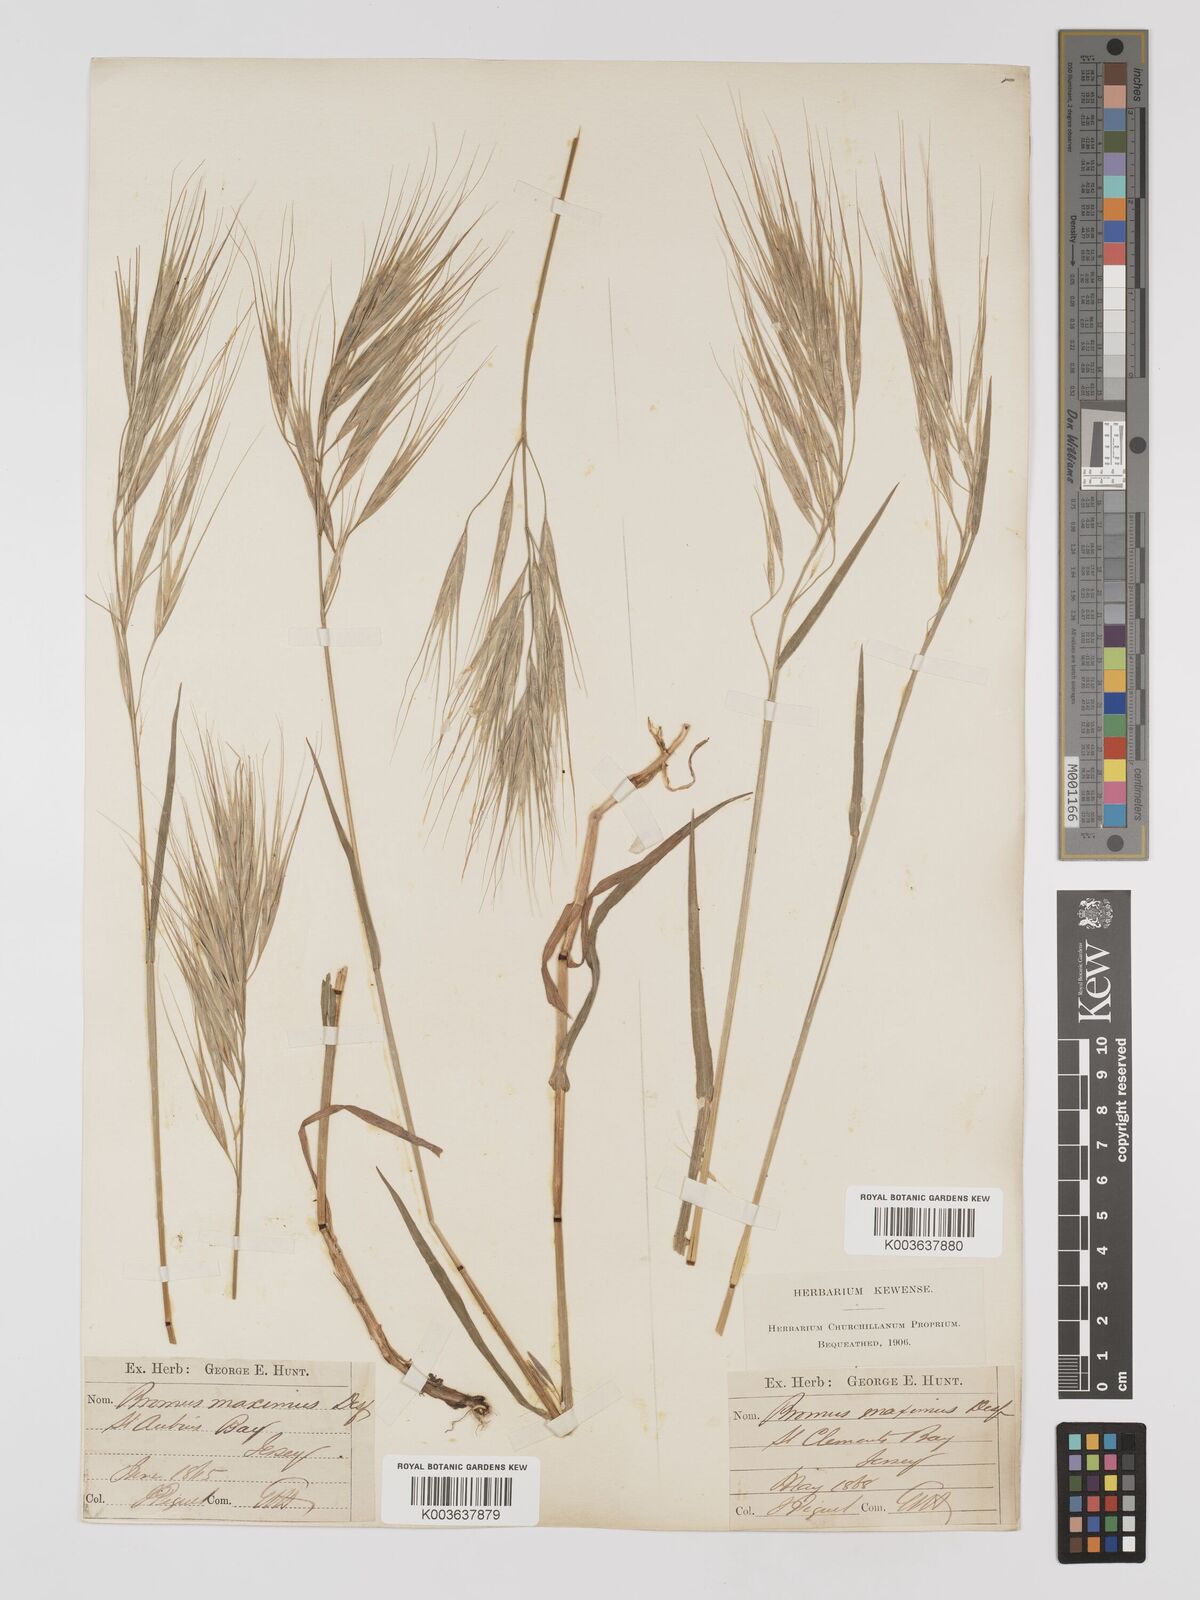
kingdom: Plantae
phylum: Tracheophyta
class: Liliopsida
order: Poales
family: Poaceae
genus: Bromus
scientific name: Bromus
